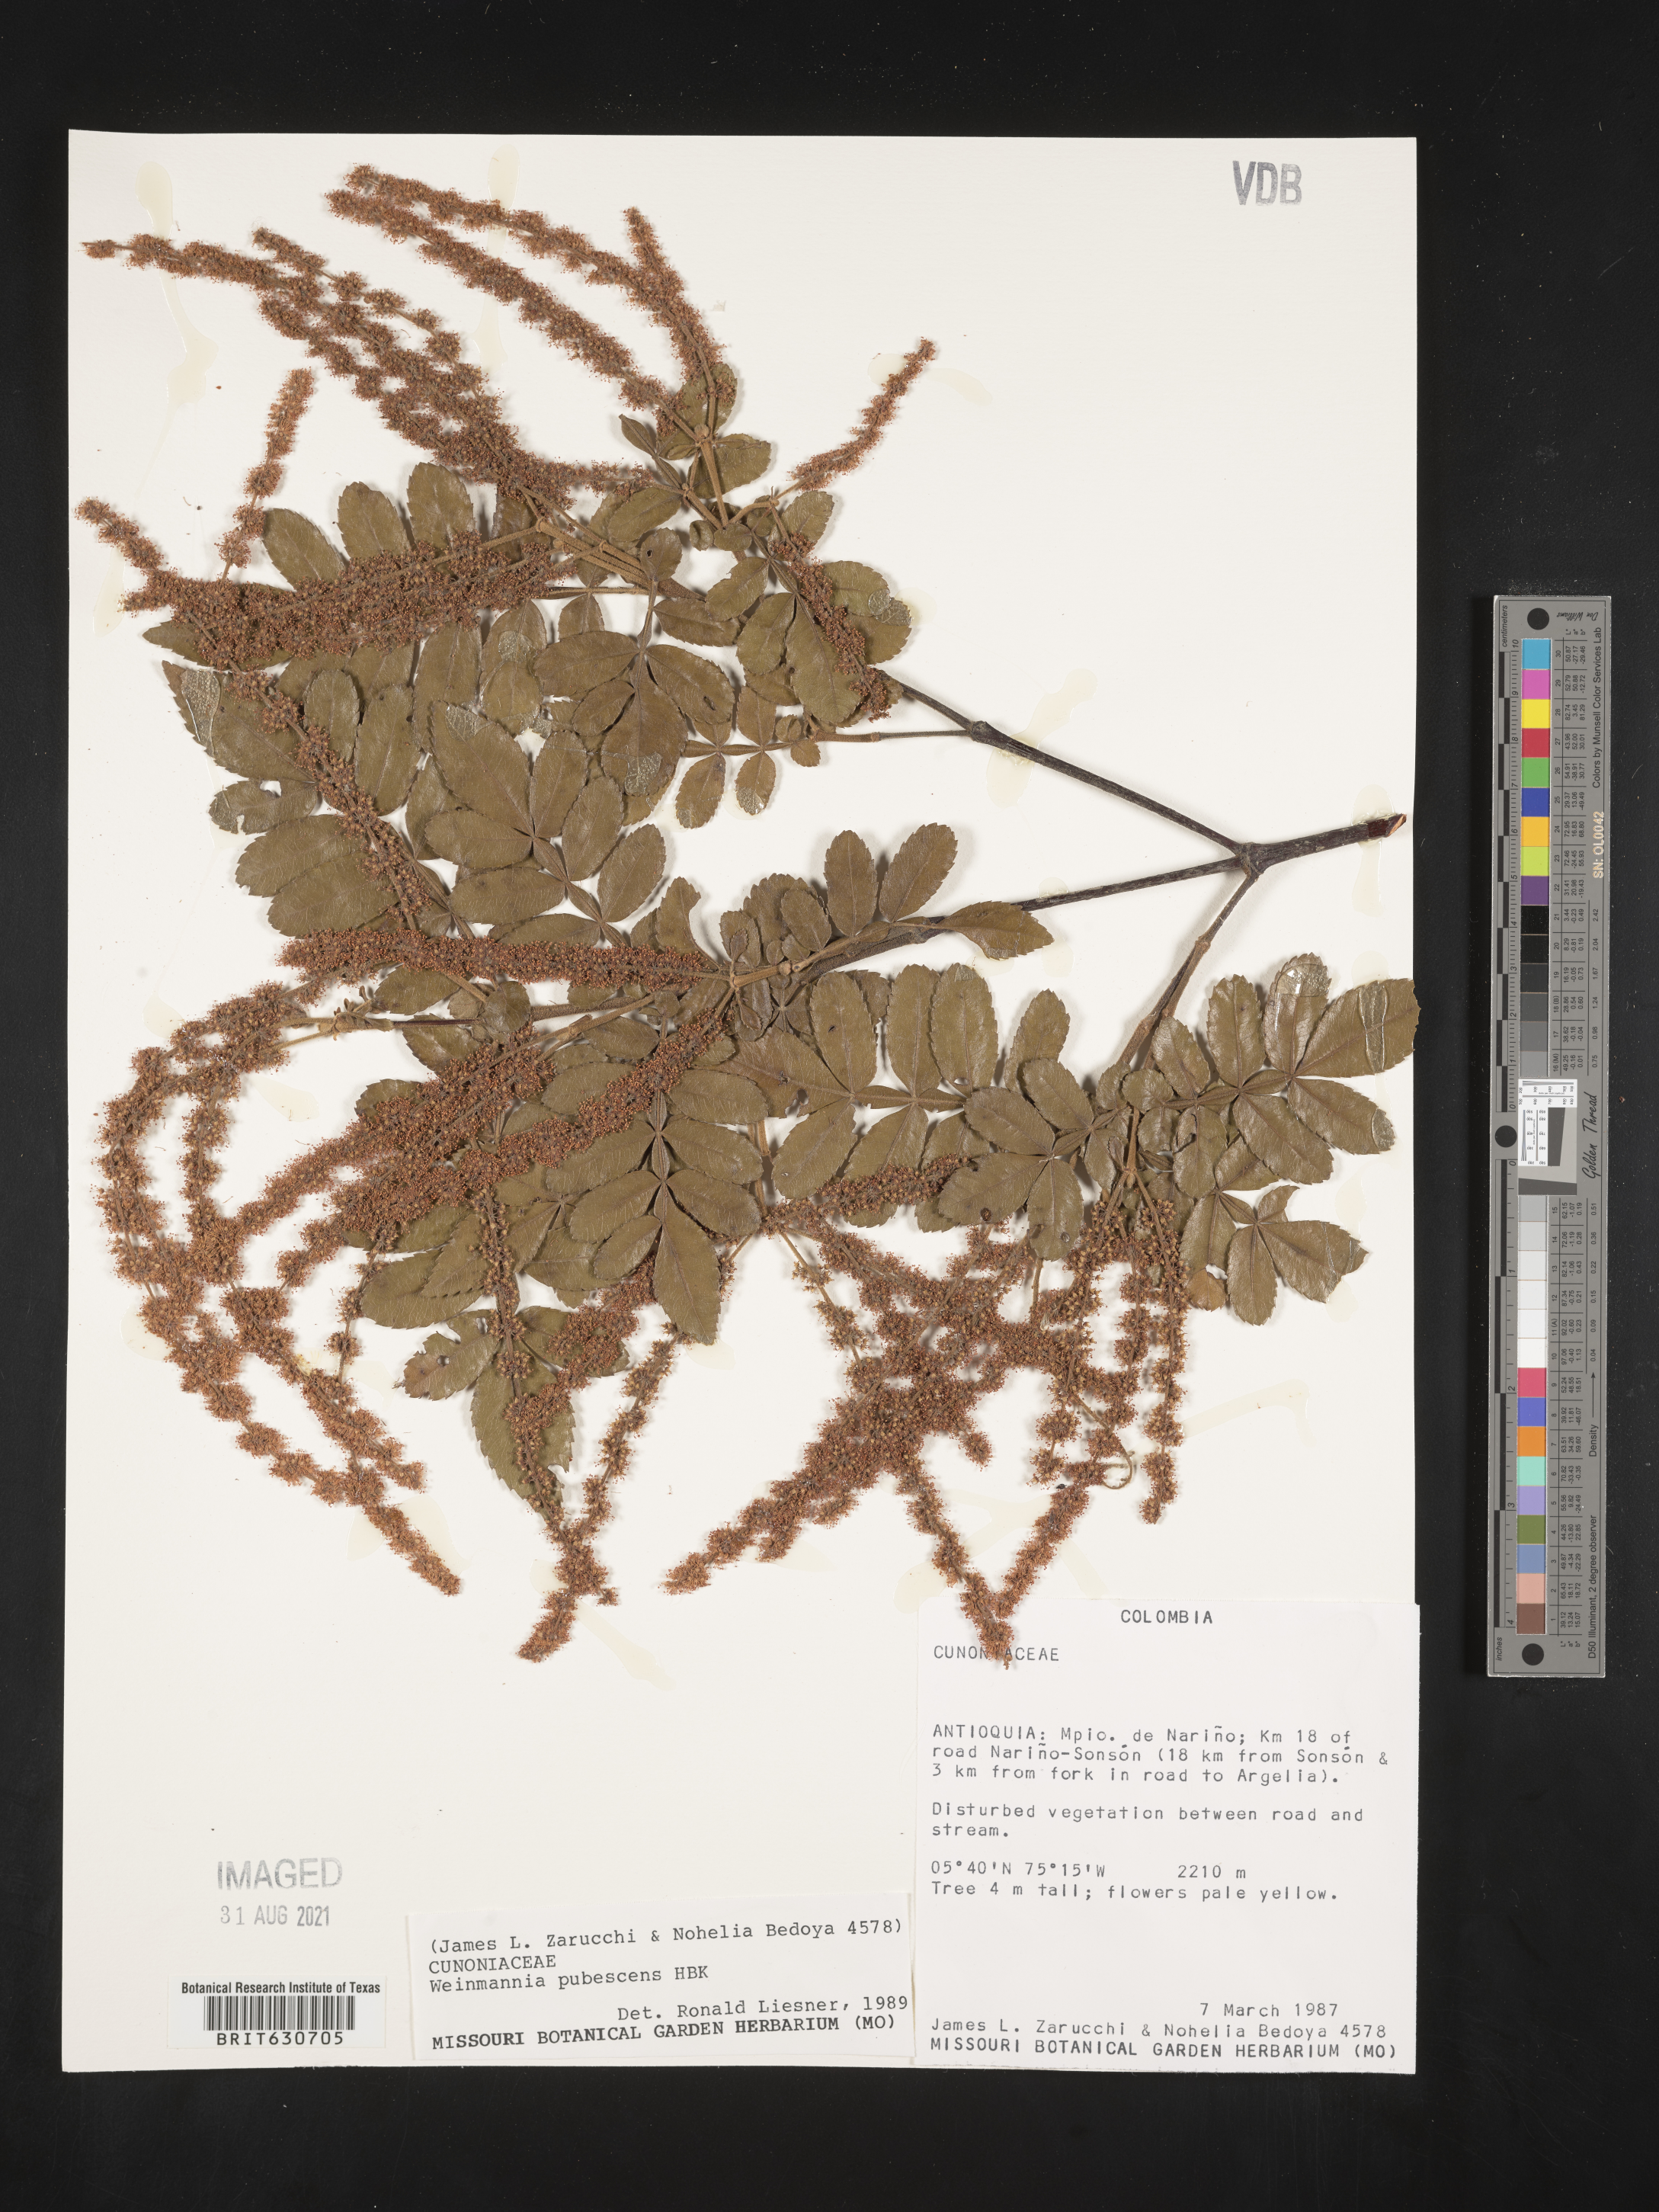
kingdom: Plantae
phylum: Tracheophyta
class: Magnoliopsida
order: Oxalidales
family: Cunoniaceae
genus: Weinmannia
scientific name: Weinmannia reticulata
